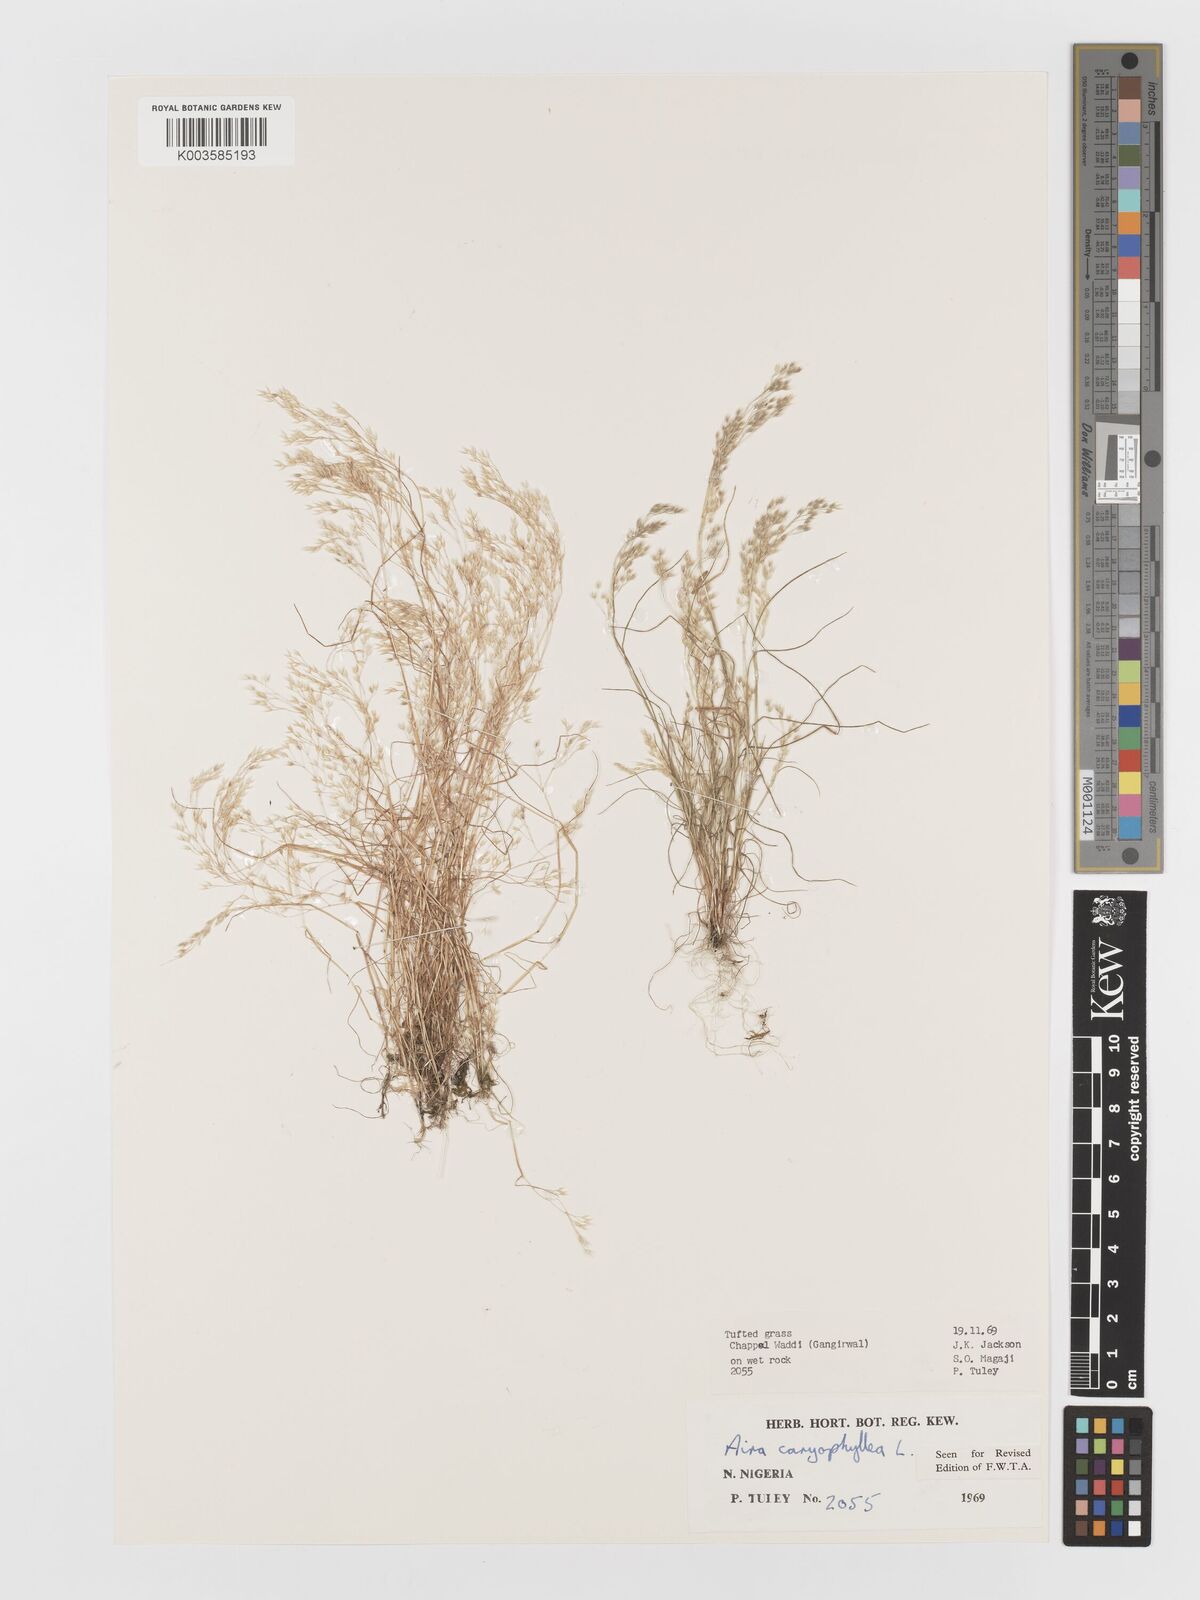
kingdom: Plantae
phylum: Tracheophyta
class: Liliopsida
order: Poales
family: Poaceae
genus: Aira
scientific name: Aira caryophyllea
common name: Silver hairgrass
